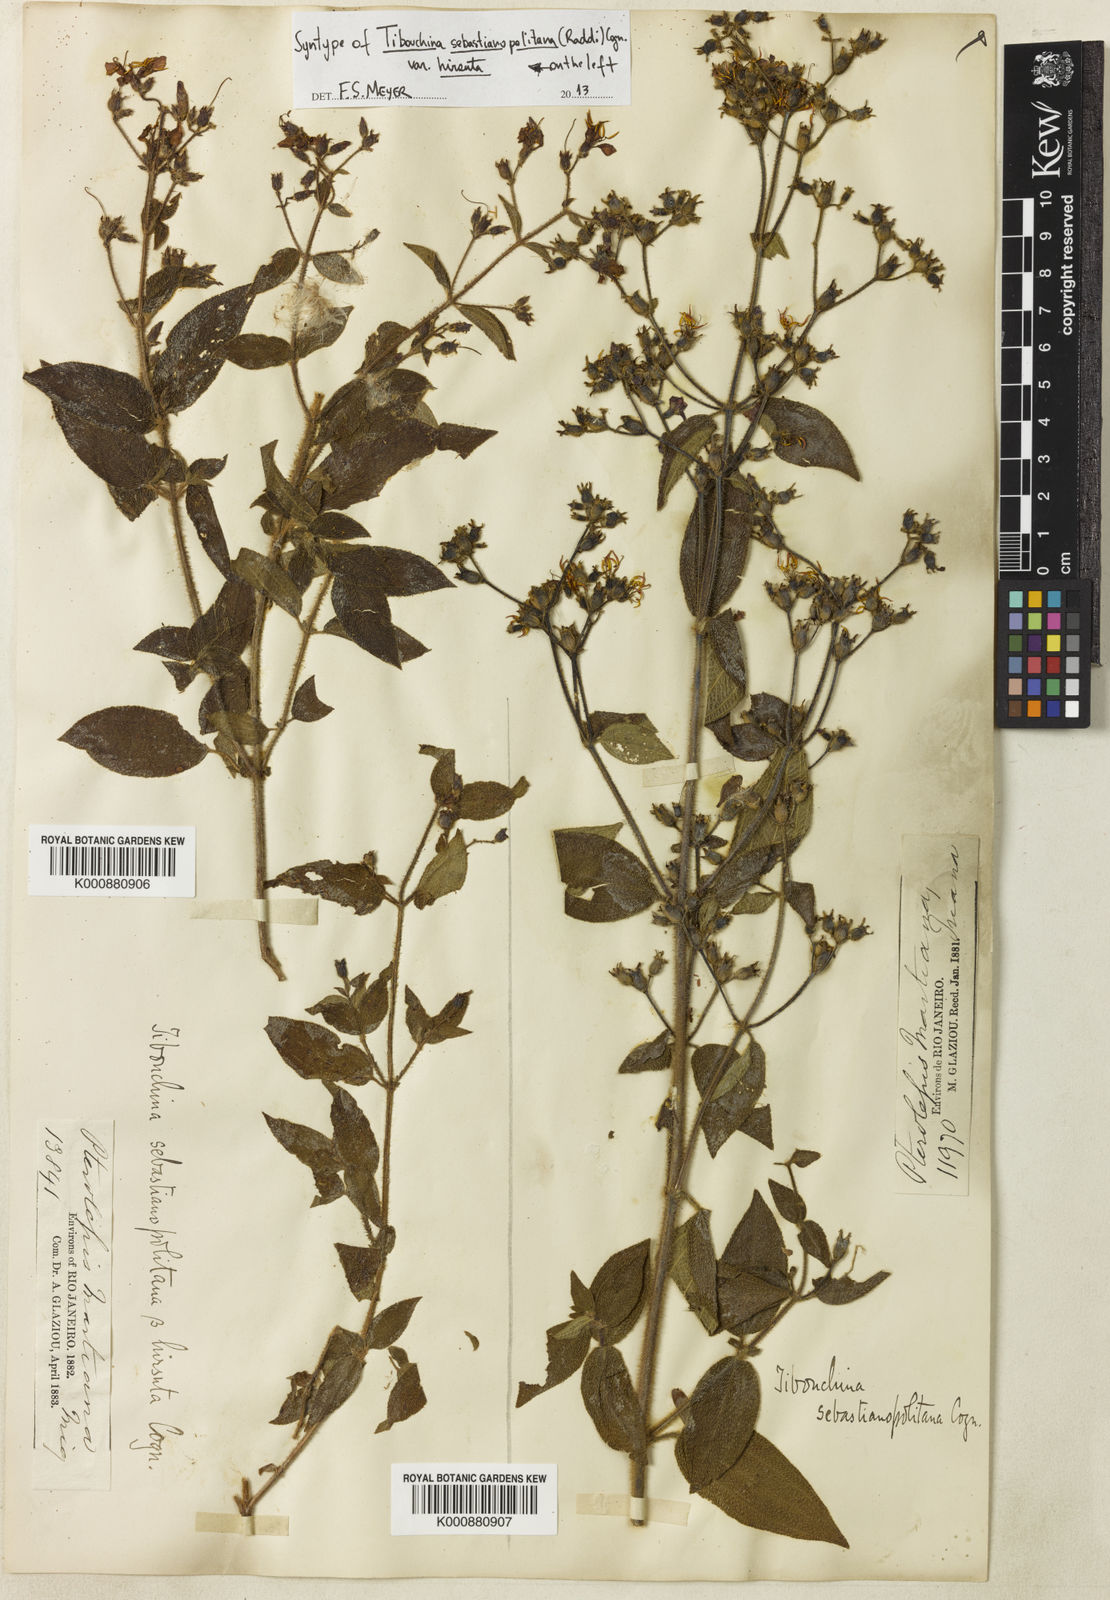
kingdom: Plantae
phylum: Tracheophyta
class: Magnoliopsida
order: Myrtales
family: Melastomataceae
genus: Chaetogastra
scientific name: Chaetogastra sebastianopolitana
